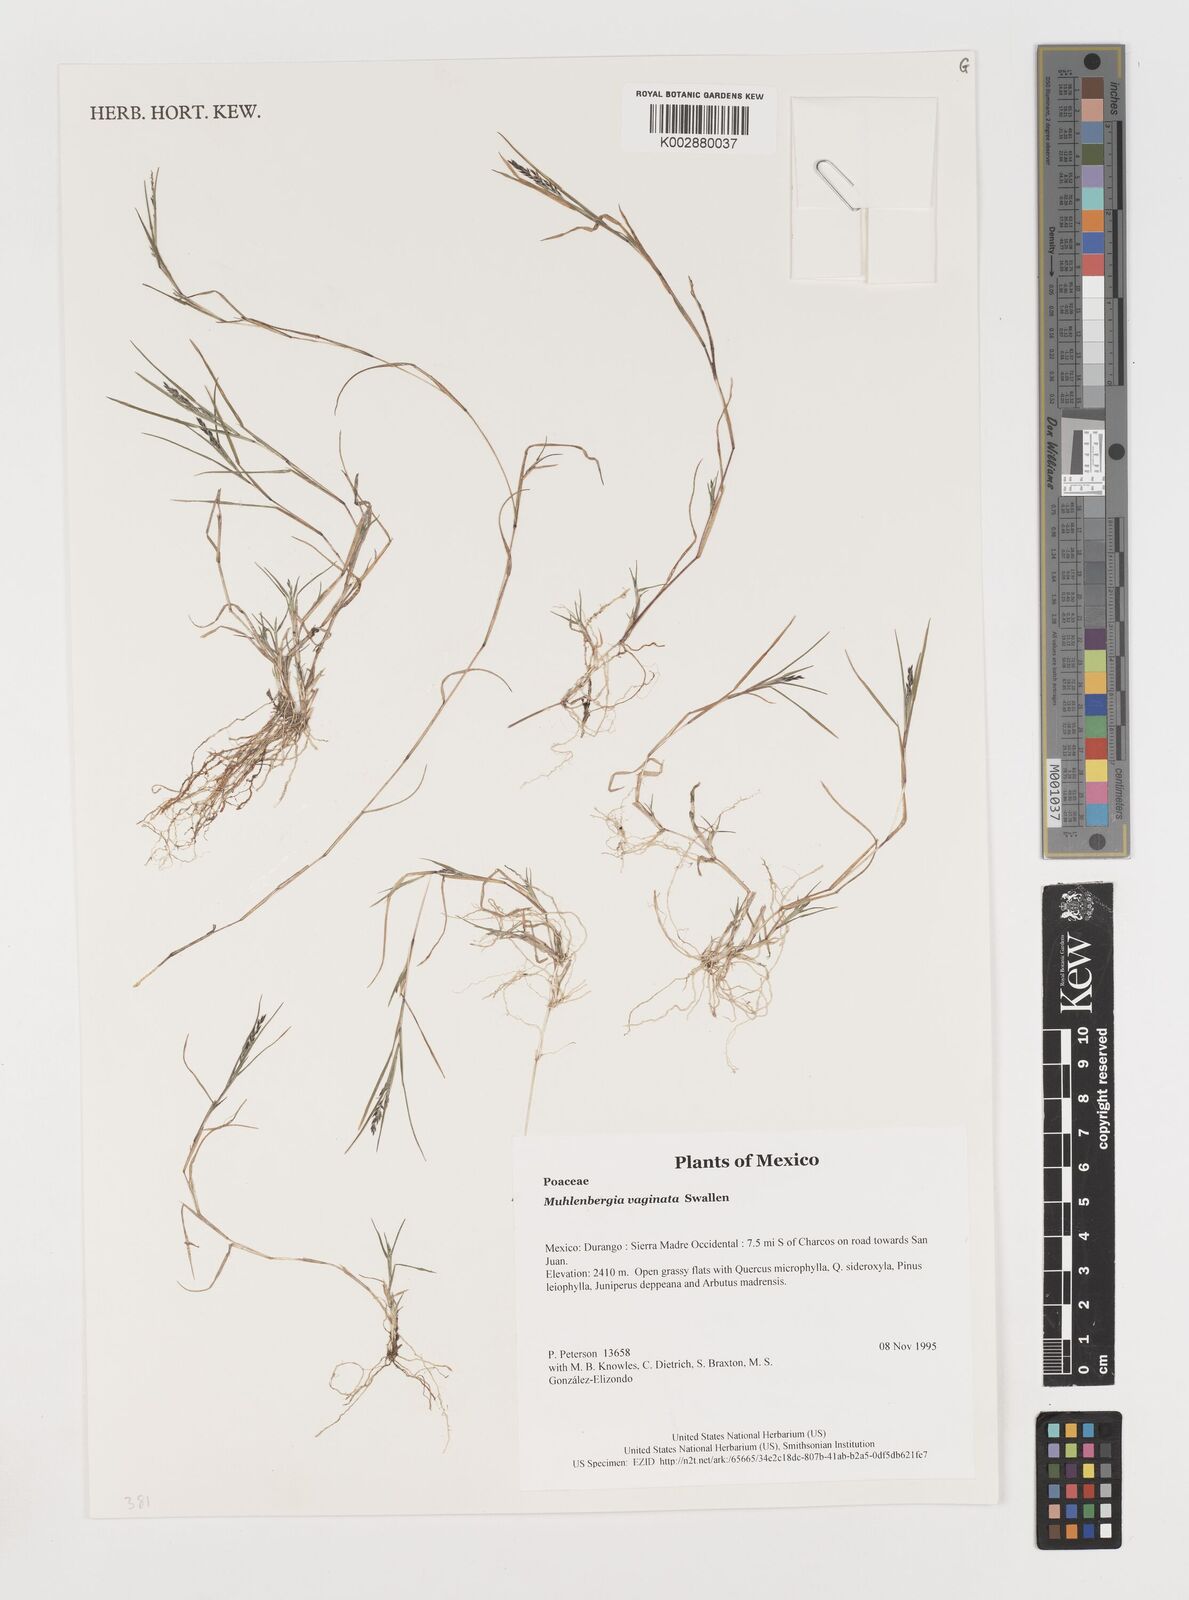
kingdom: Plantae
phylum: Tracheophyta
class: Liliopsida
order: Poales
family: Poaceae
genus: Muhlenbergia
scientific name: Muhlenbergia vaginata
